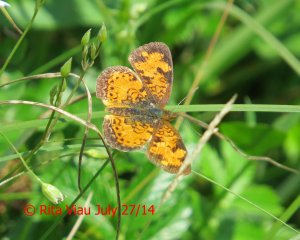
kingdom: Animalia
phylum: Arthropoda
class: Insecta
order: Lepidoptera
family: Nymphalidae
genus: Phyciodes
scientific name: Phyciodes tharos
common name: Northern Crescent
